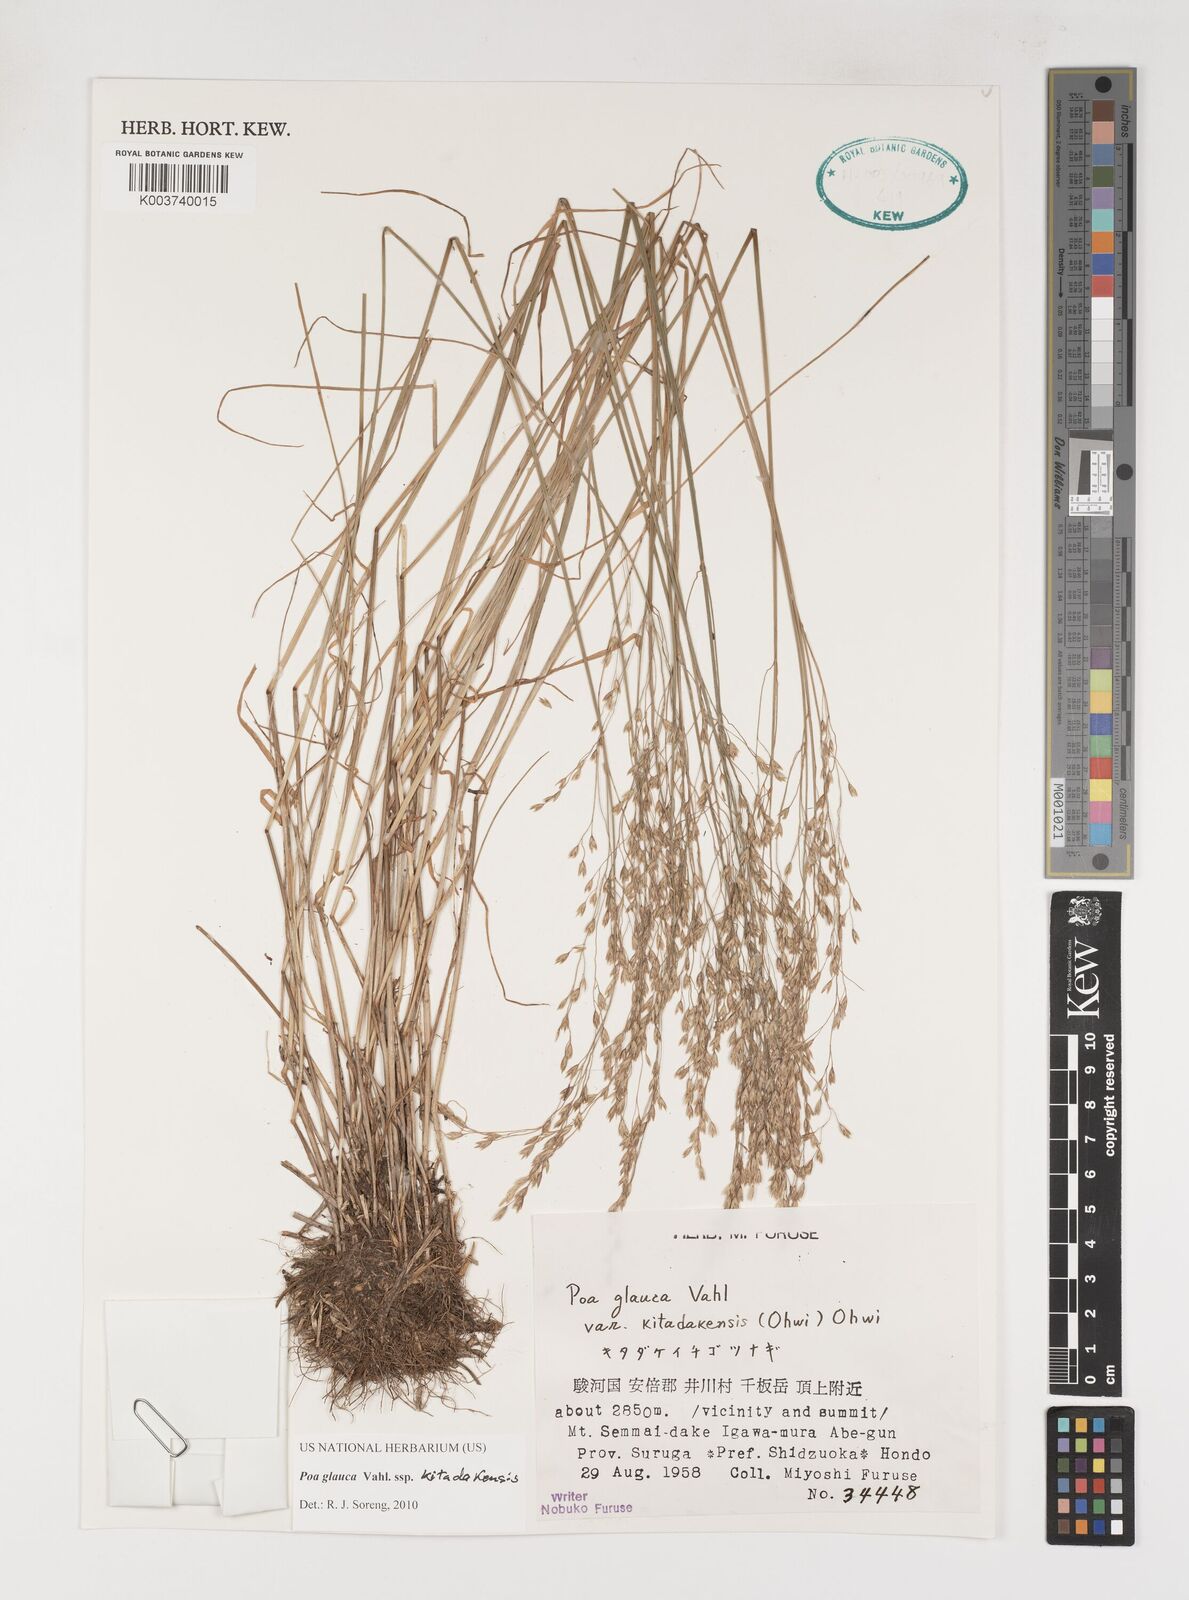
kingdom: Plantae
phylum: Tracheophyta
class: Liliopsida
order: Poales
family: Poaceae
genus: Poa
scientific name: Poa glauca
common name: Glaucous bluegrass
